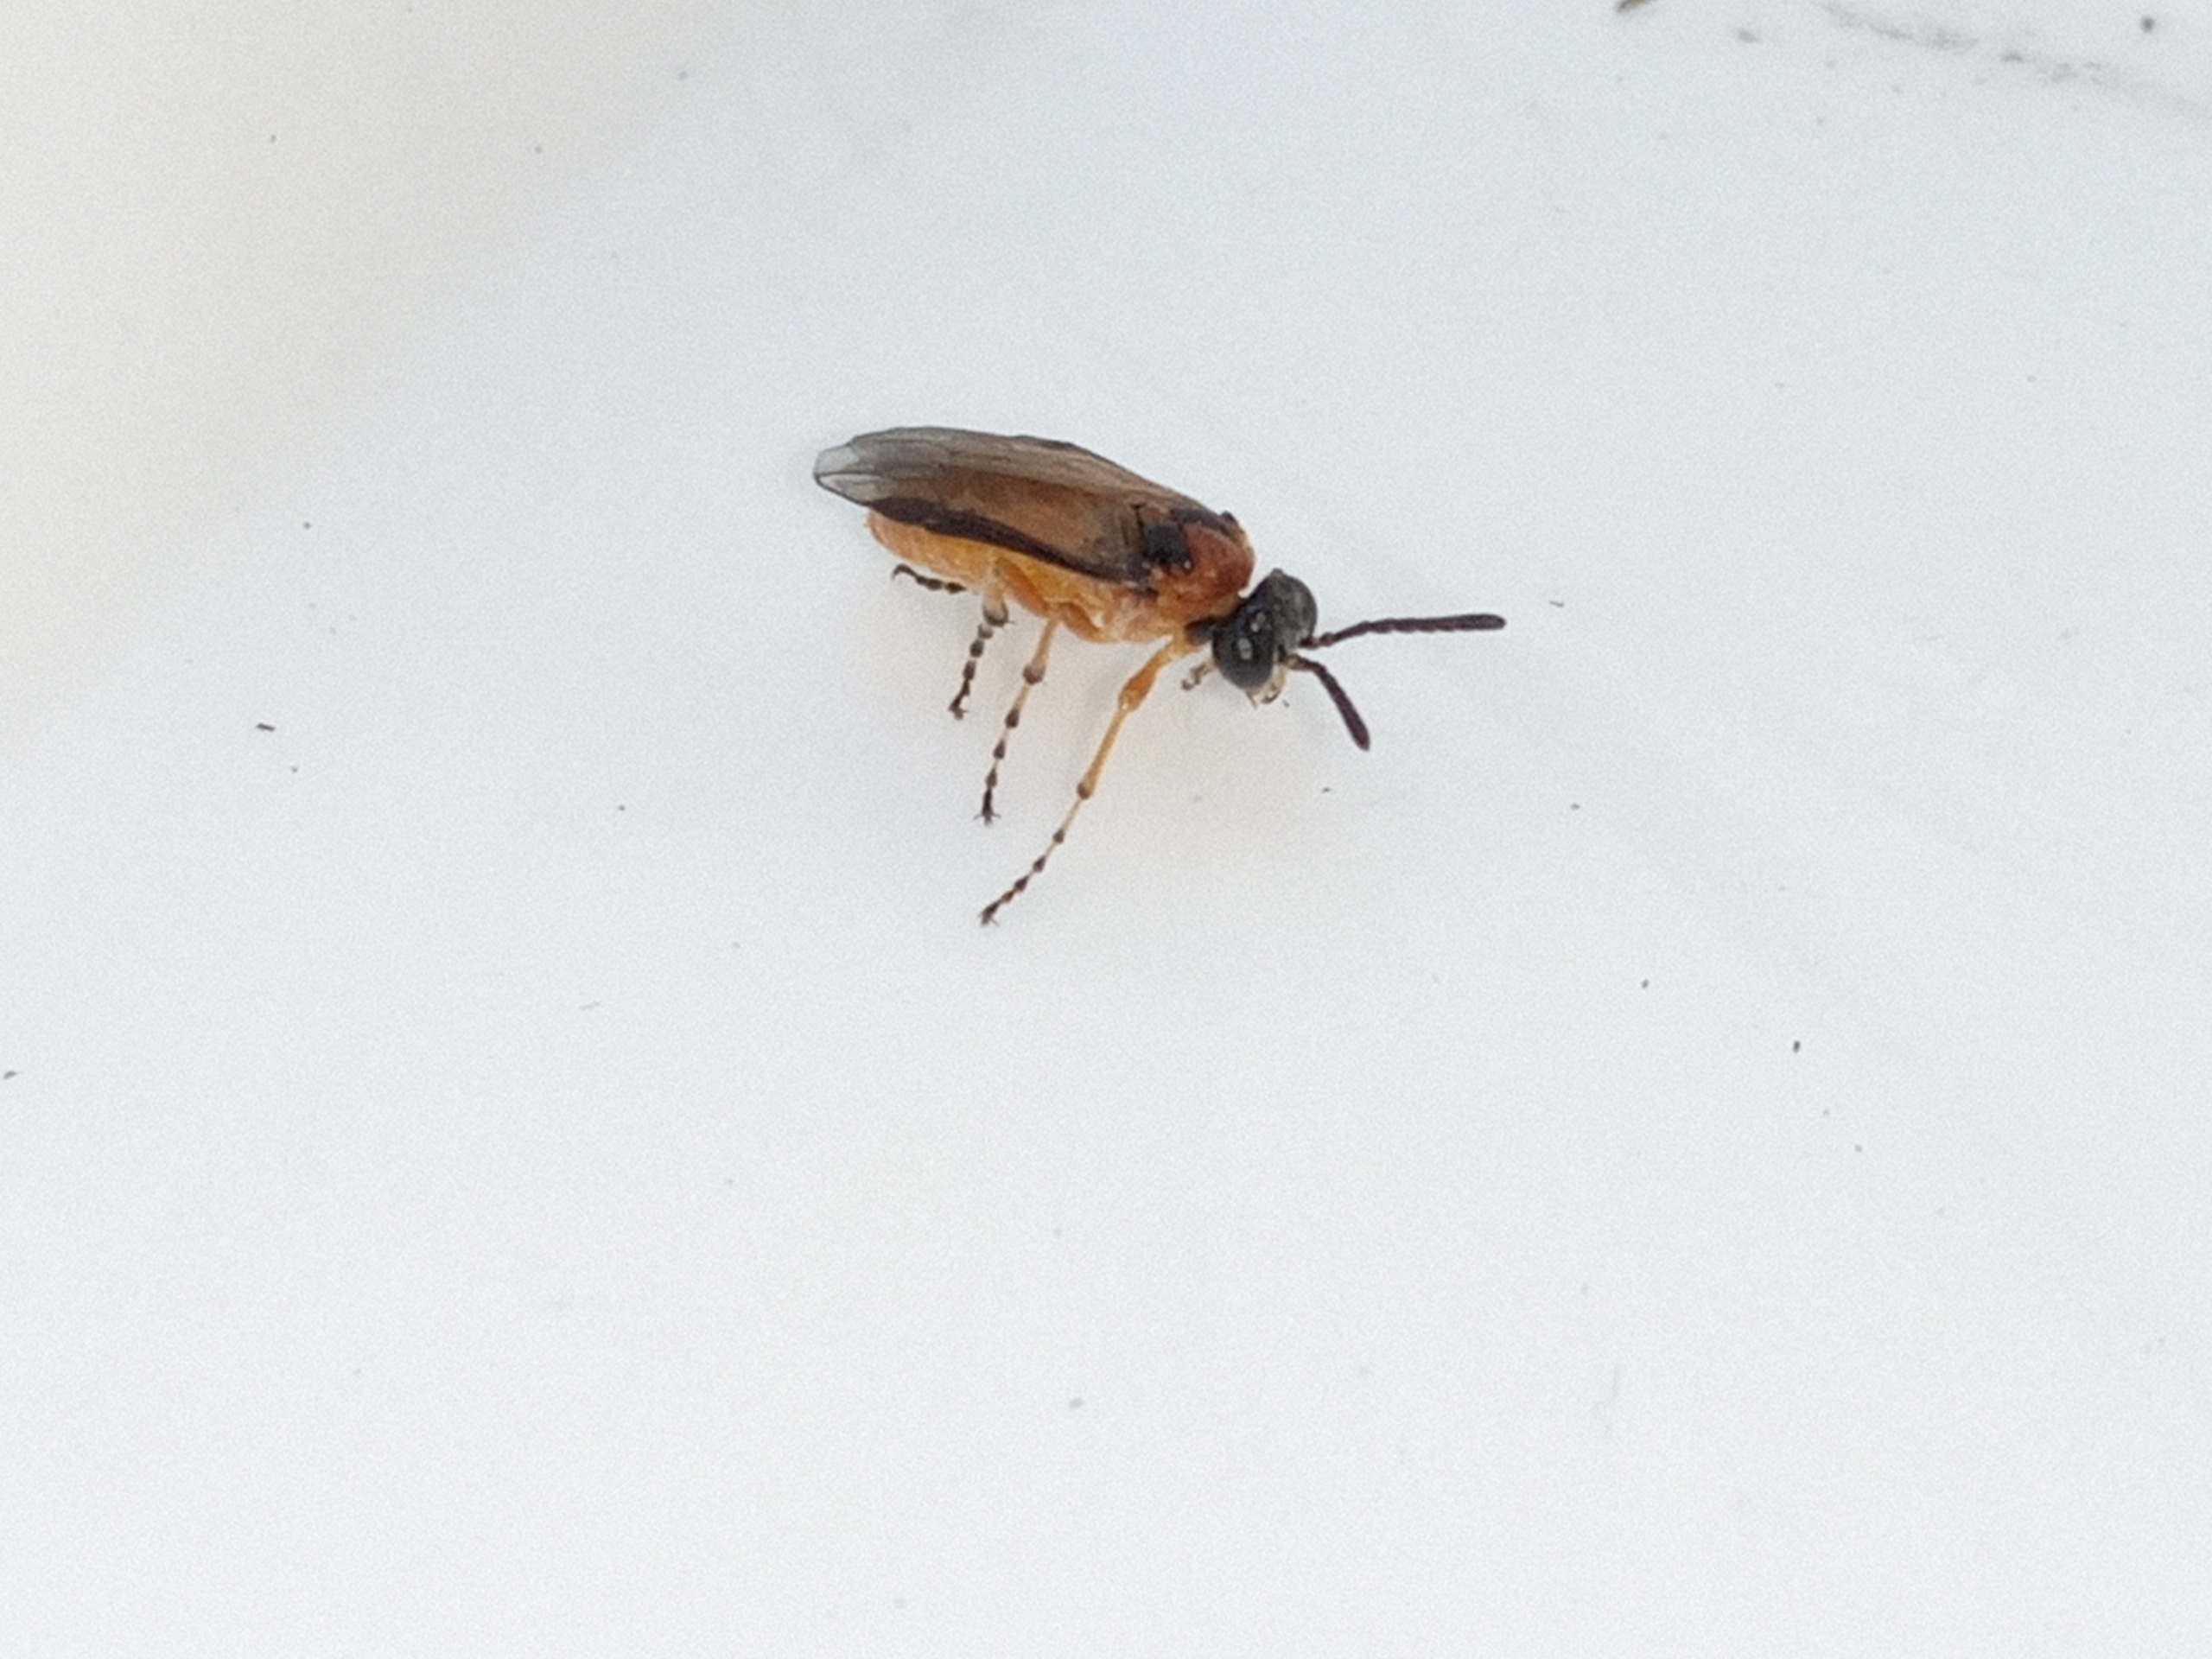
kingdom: Animalia
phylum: Arthropoda
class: Insecta
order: Hymenoptera
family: Tenthredinidae
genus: Athalia
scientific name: Athalia rosae
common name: Kålbladhveps
